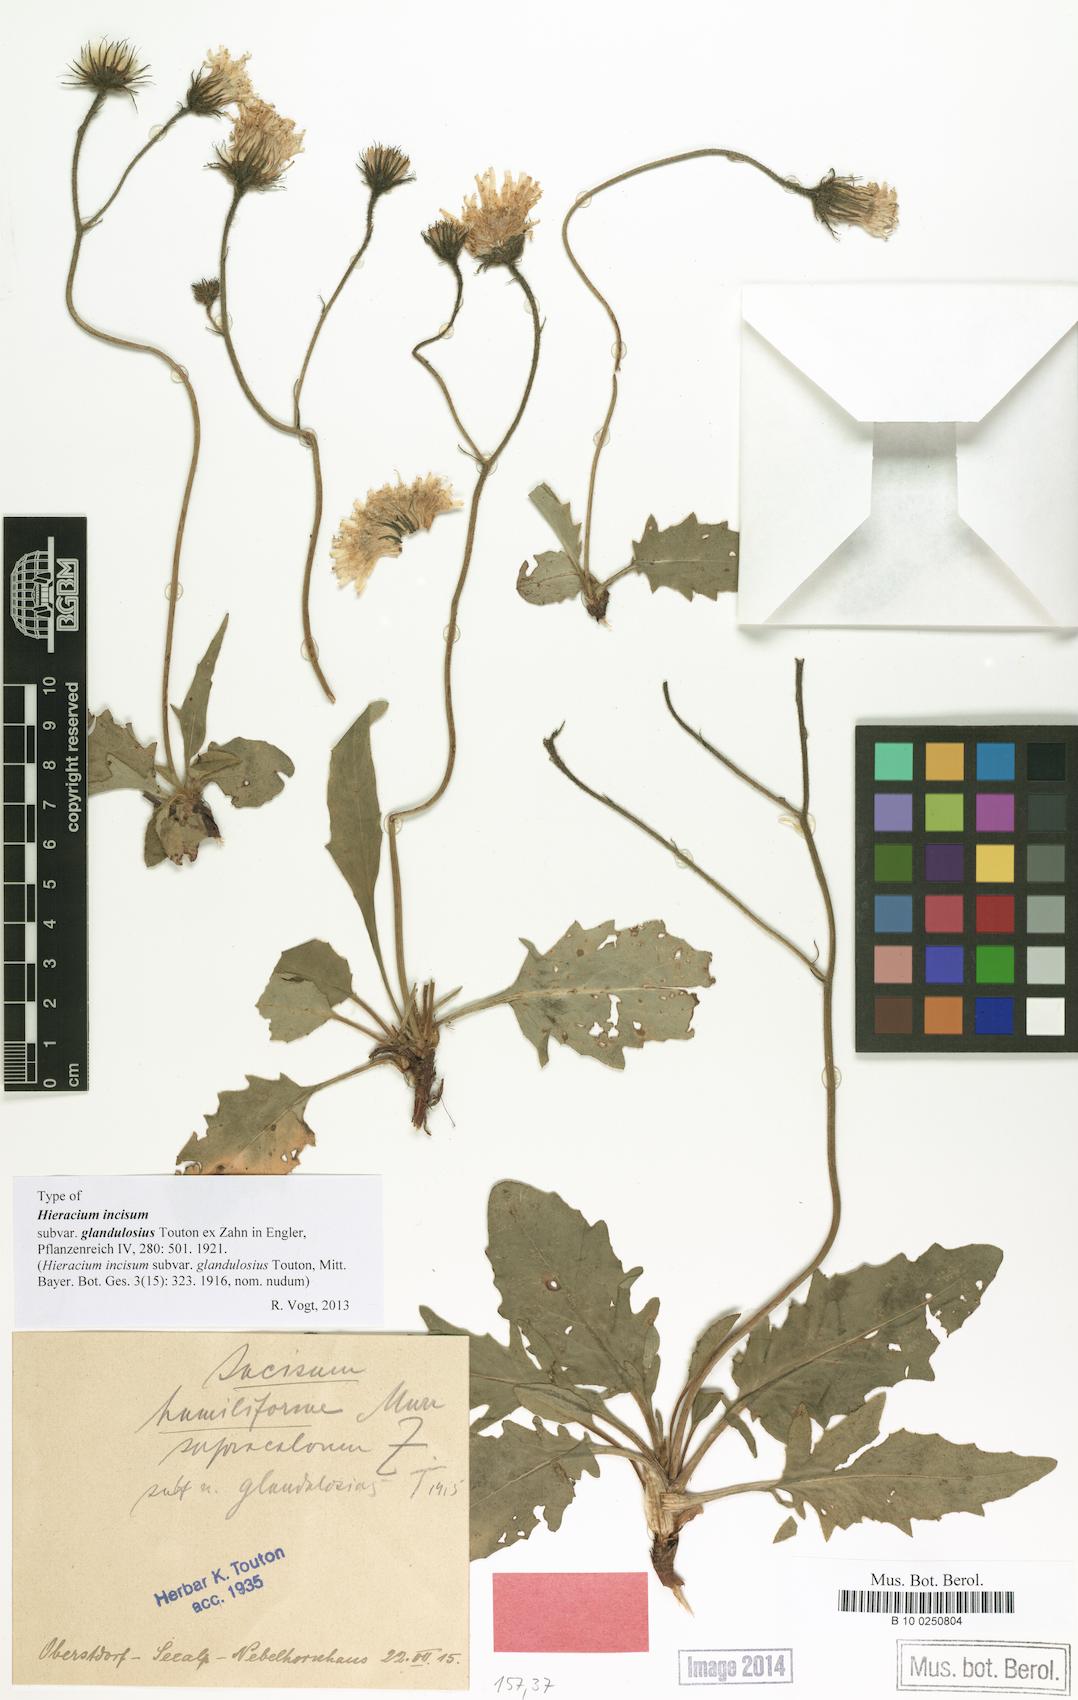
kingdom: Plantae
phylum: Tracheophyta
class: Magnoliopsida
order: Asterales
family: Asteraceae
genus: Hieracium
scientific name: Hieracium incisum
